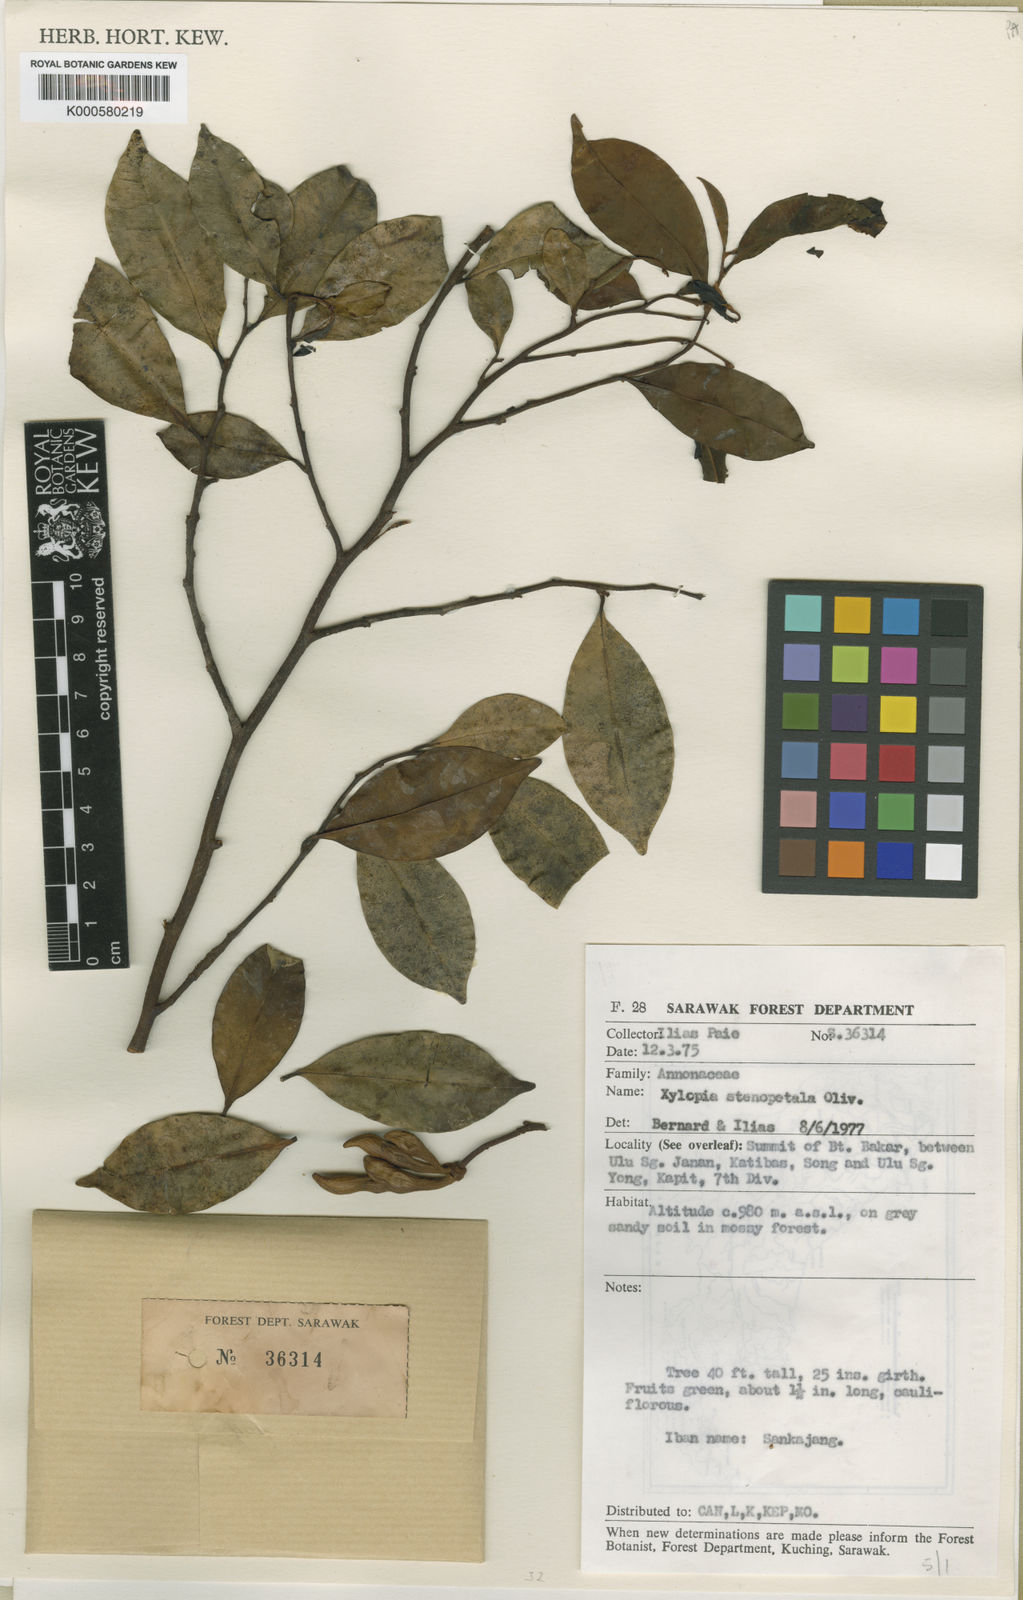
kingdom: Plantae
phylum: Tracheophyta
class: Magnoliopsida
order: Magnoliales
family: Annonaceae
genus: Xylopia
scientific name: Xylopia orestera
